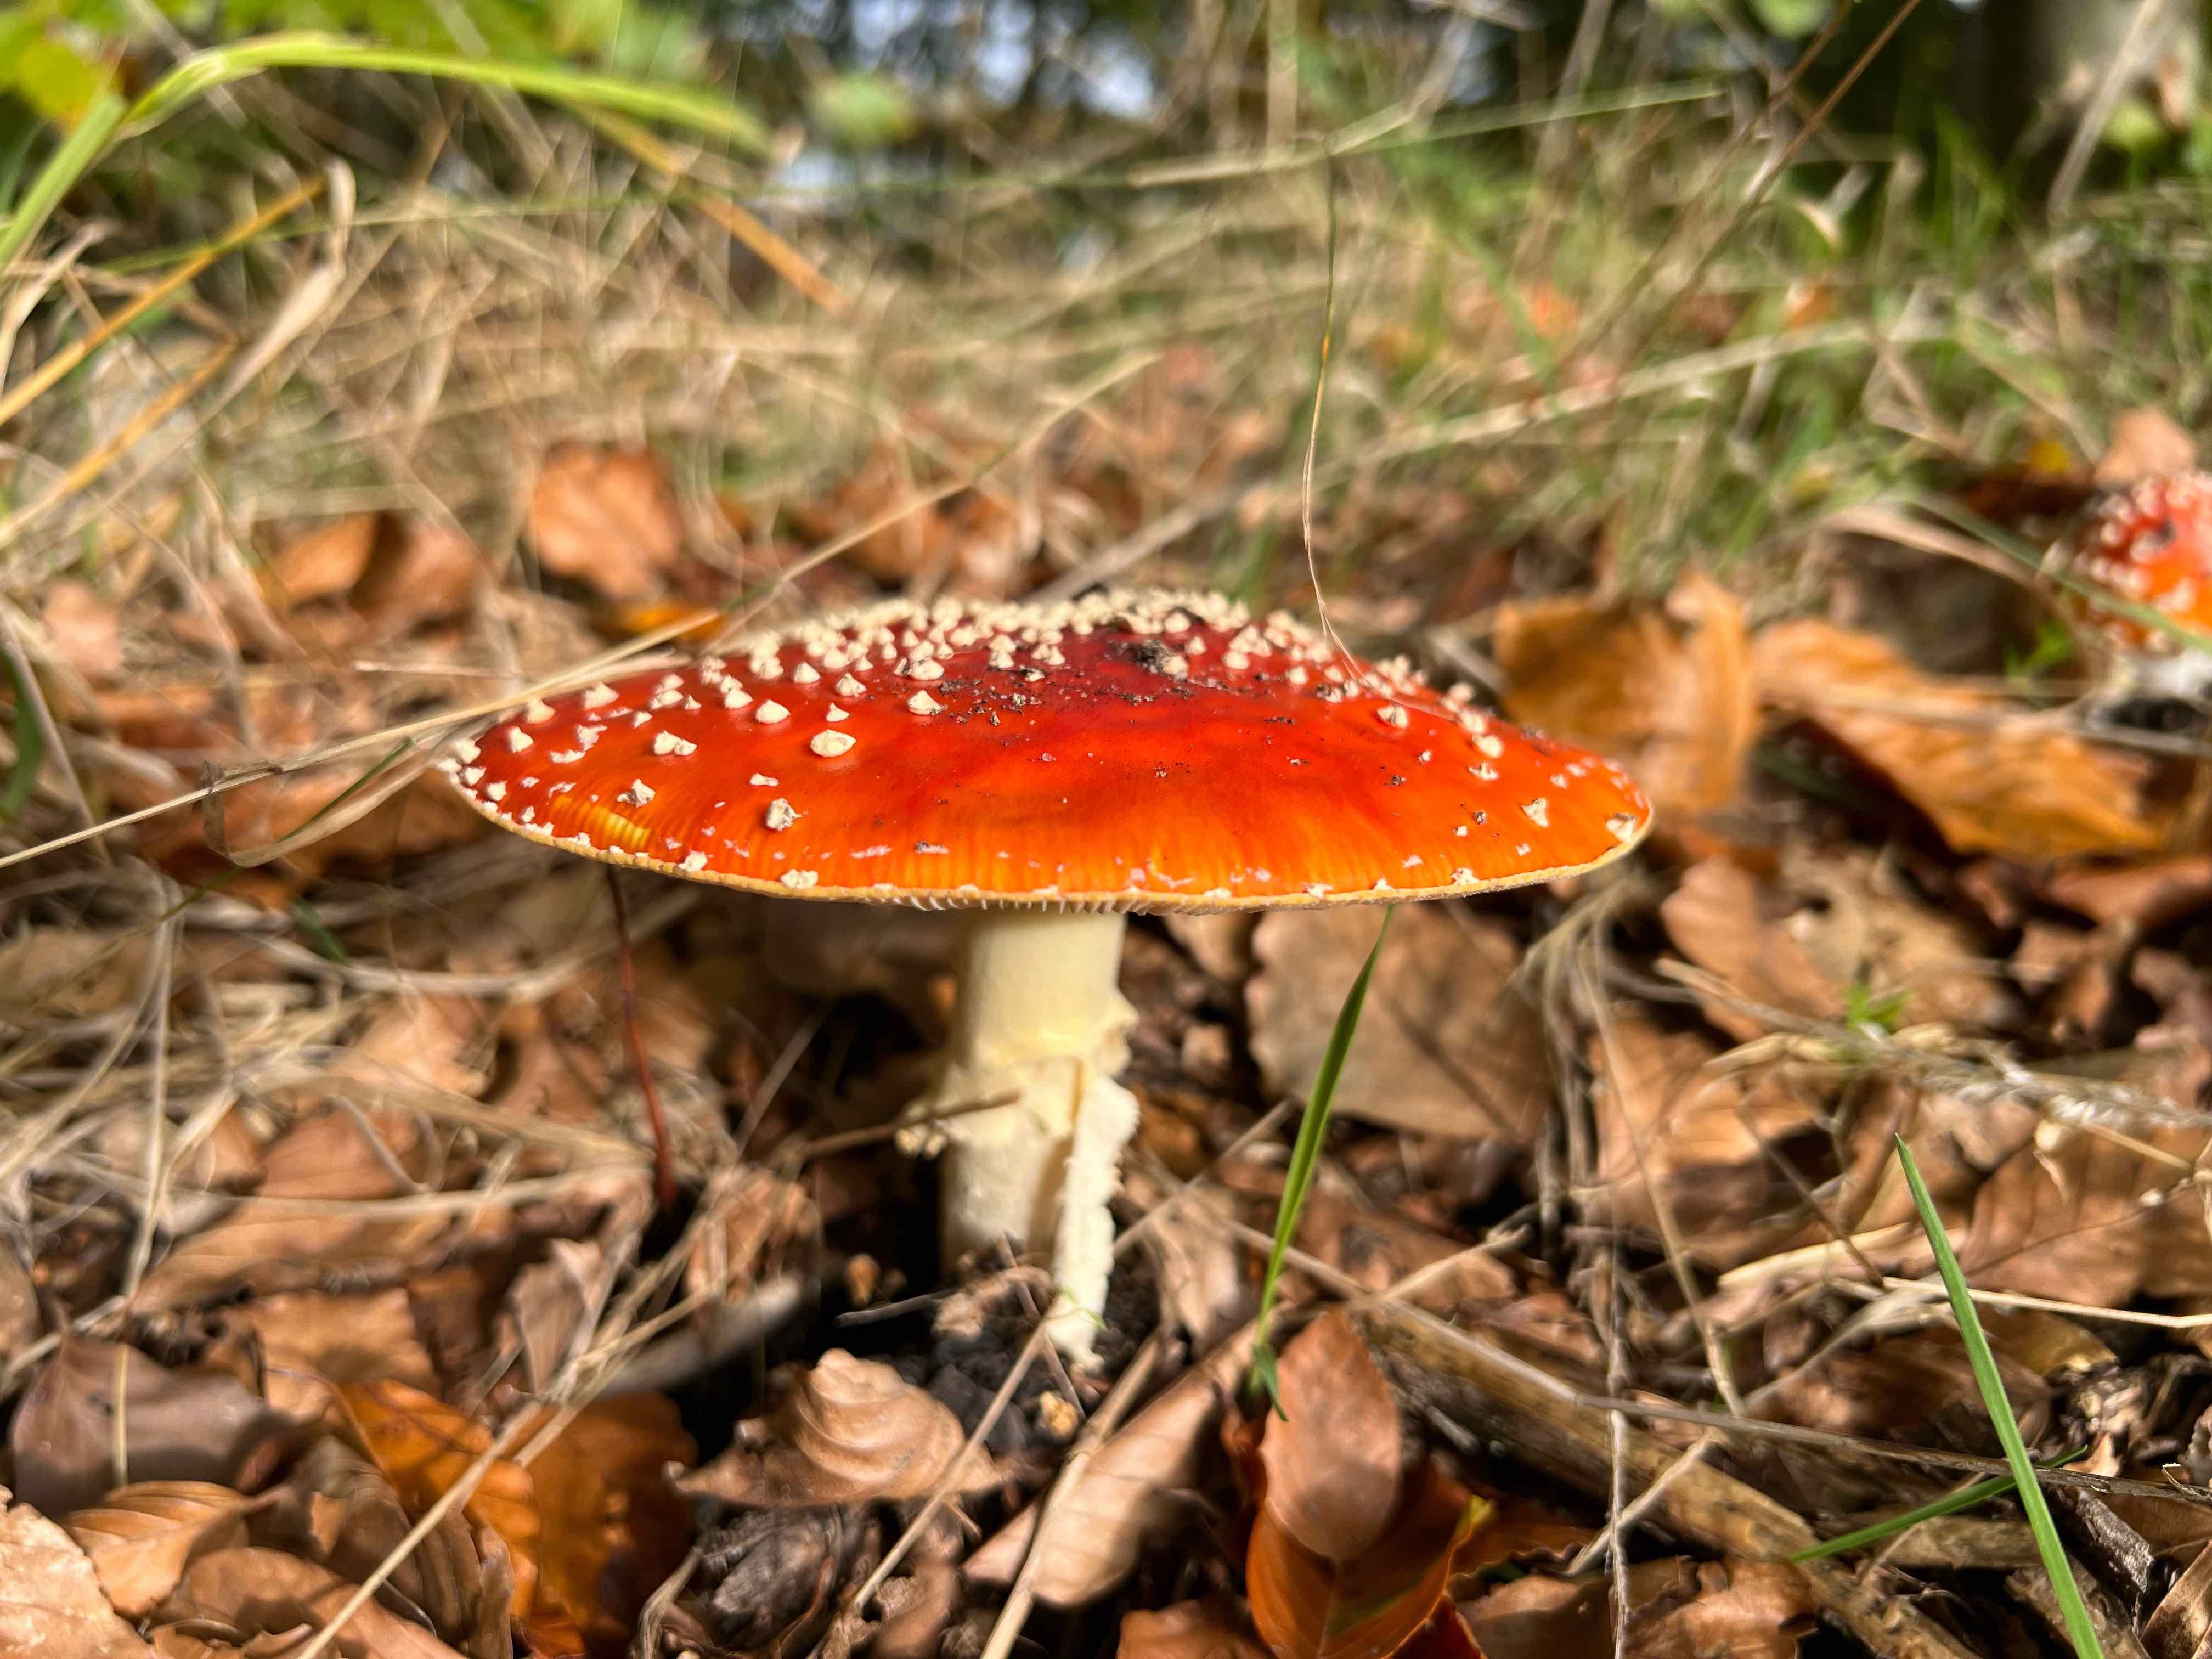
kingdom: Fungi
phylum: Basidiomycota
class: Agaricomycetes
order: Agaricales
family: Amanitaceae
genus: Amanita
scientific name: Amanita muscaria
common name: rød fluesvamp
